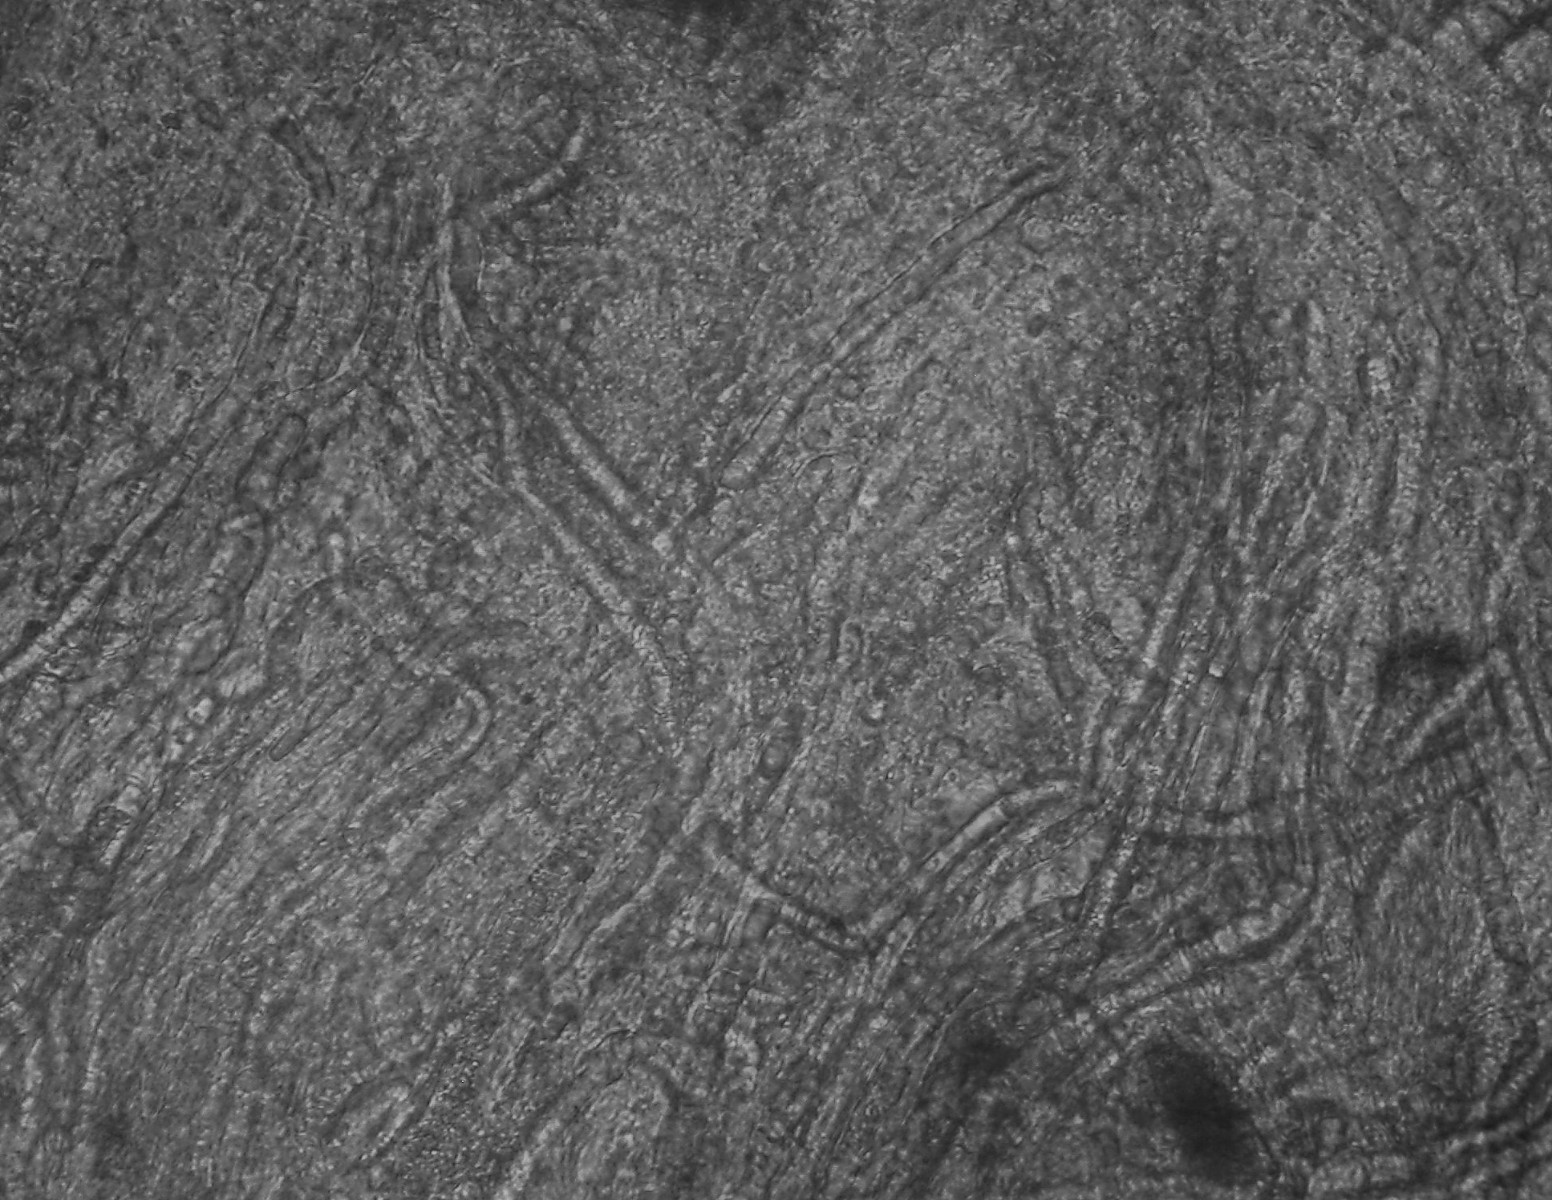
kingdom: Fungi
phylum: Basidiomycota
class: Agaricomycetes
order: Russulales
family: Peniophoraceae
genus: Gloiothele
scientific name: Gloiothele lactescens
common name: bitter olieskind
